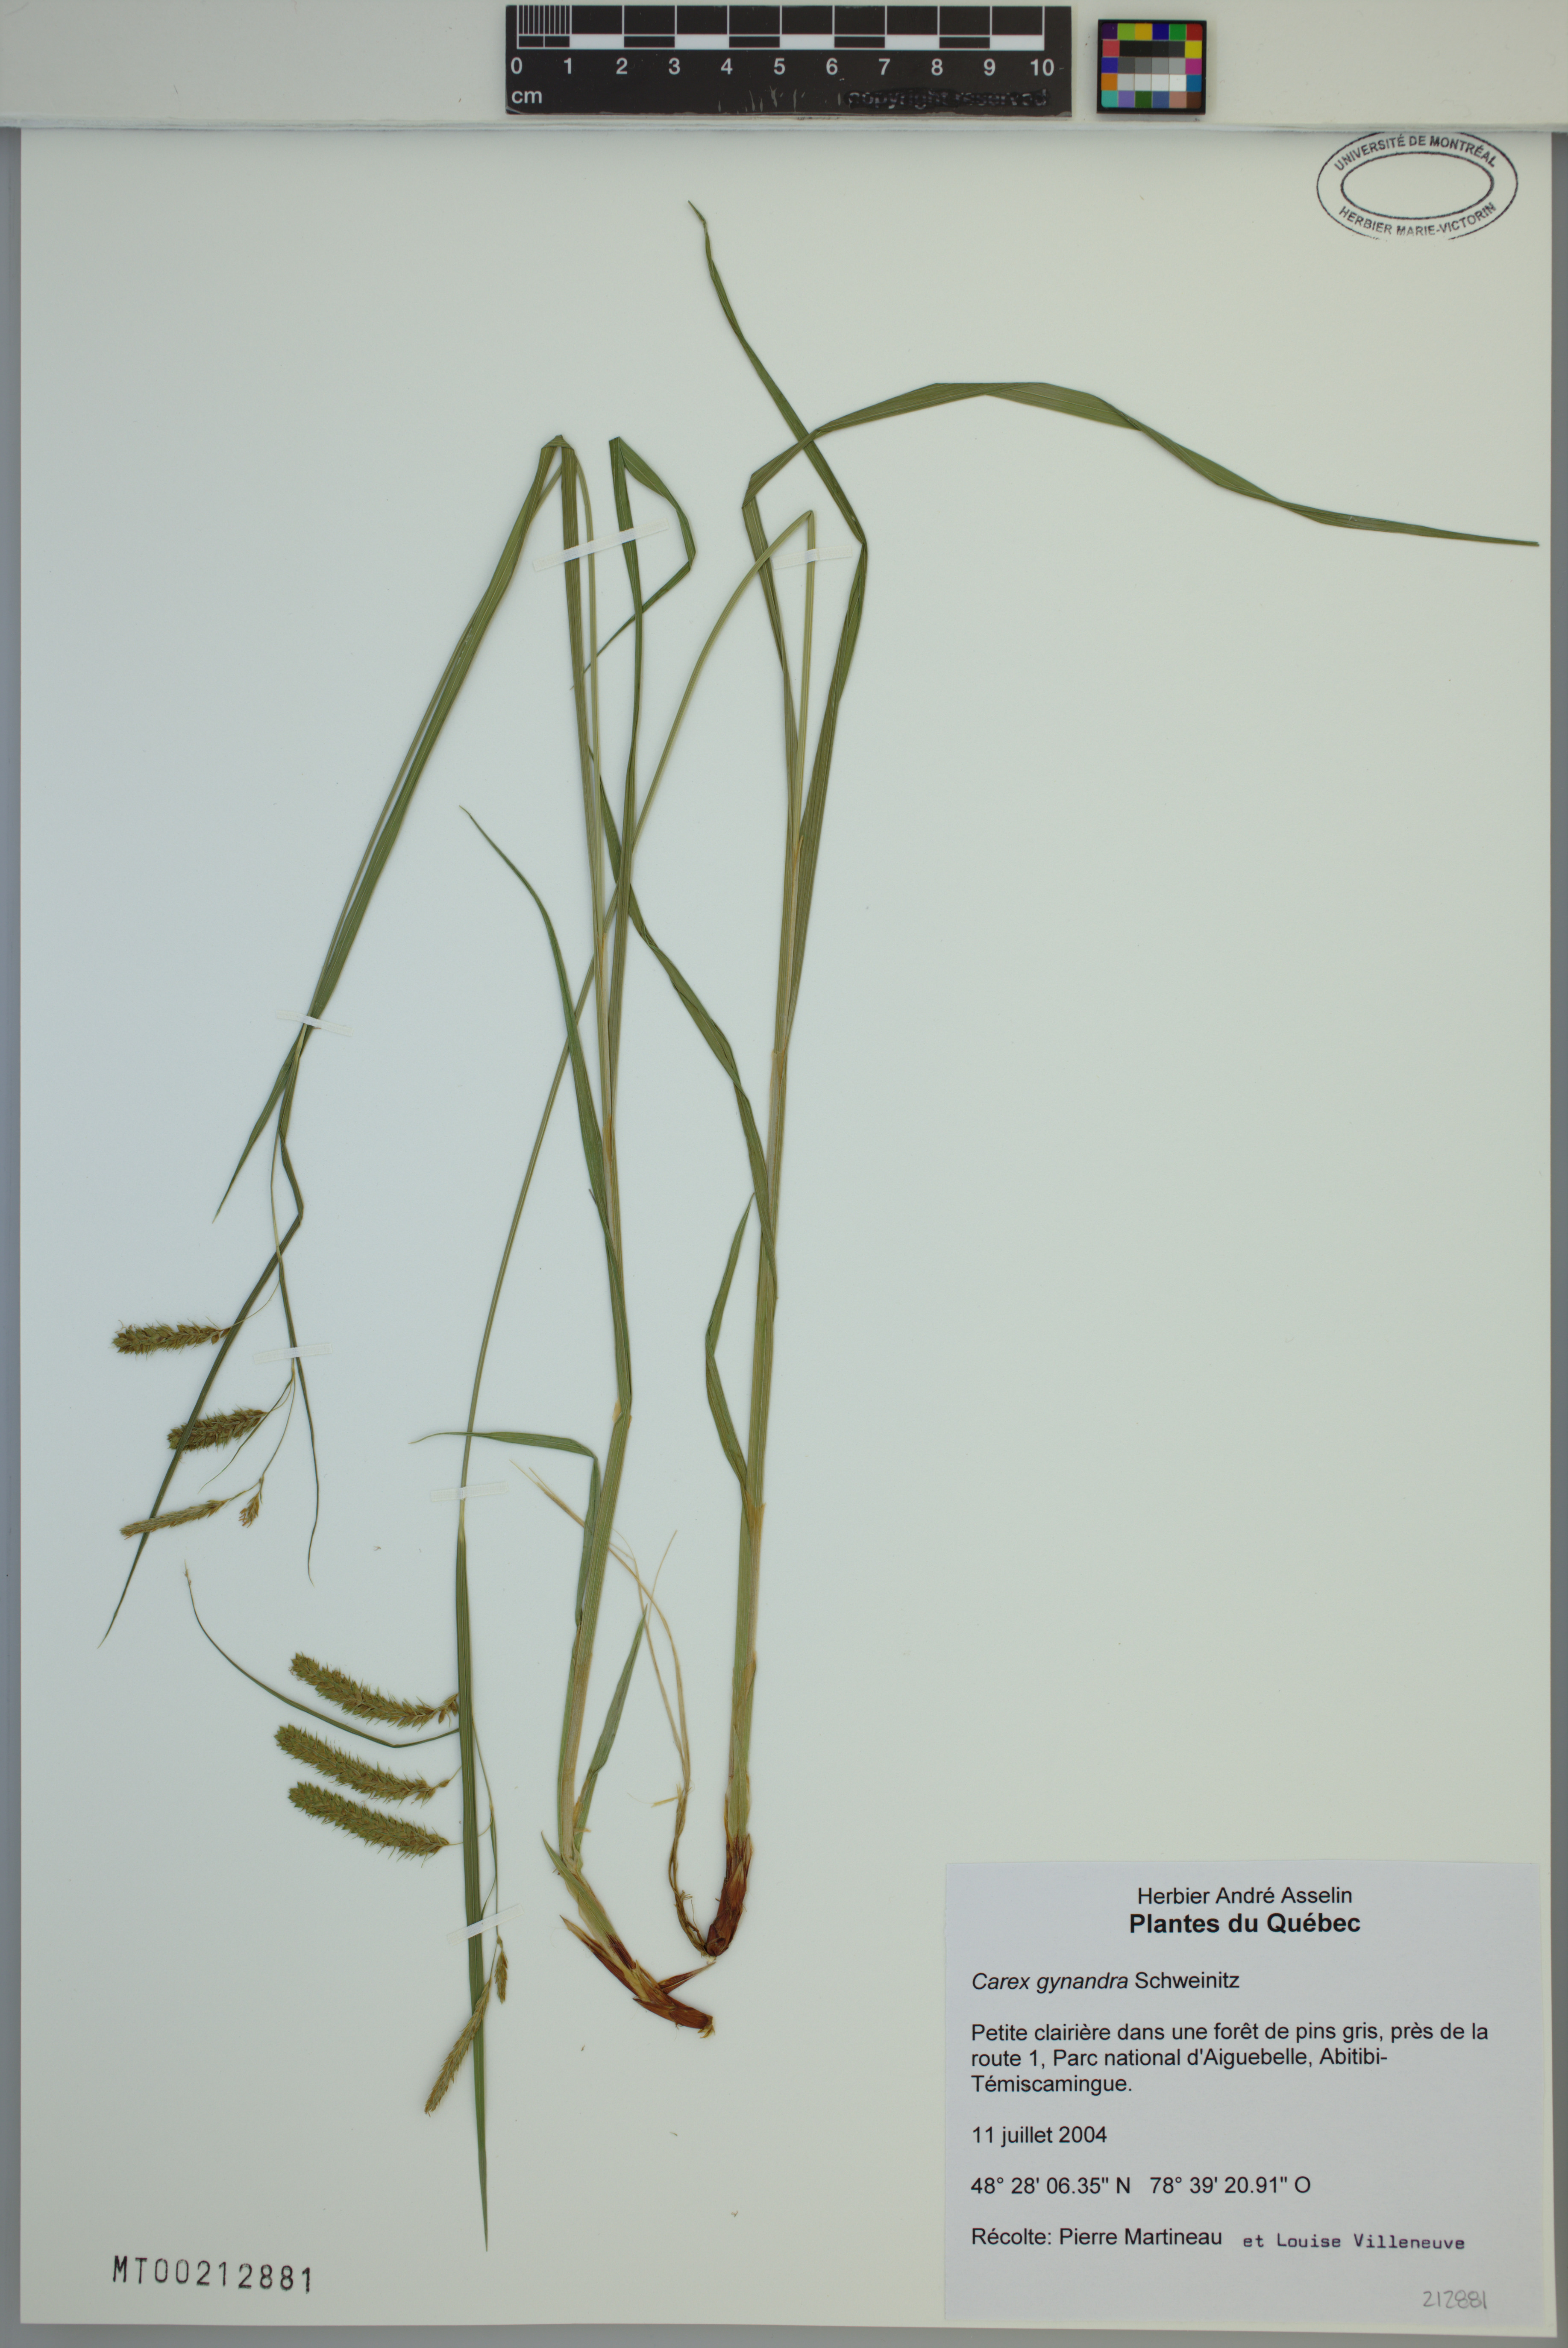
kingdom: Plantae
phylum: Tracheophyta
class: Liliopsida
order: Poales
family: Cyperaceae
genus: Carex
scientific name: Carex gynandra
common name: Nodding sedge
